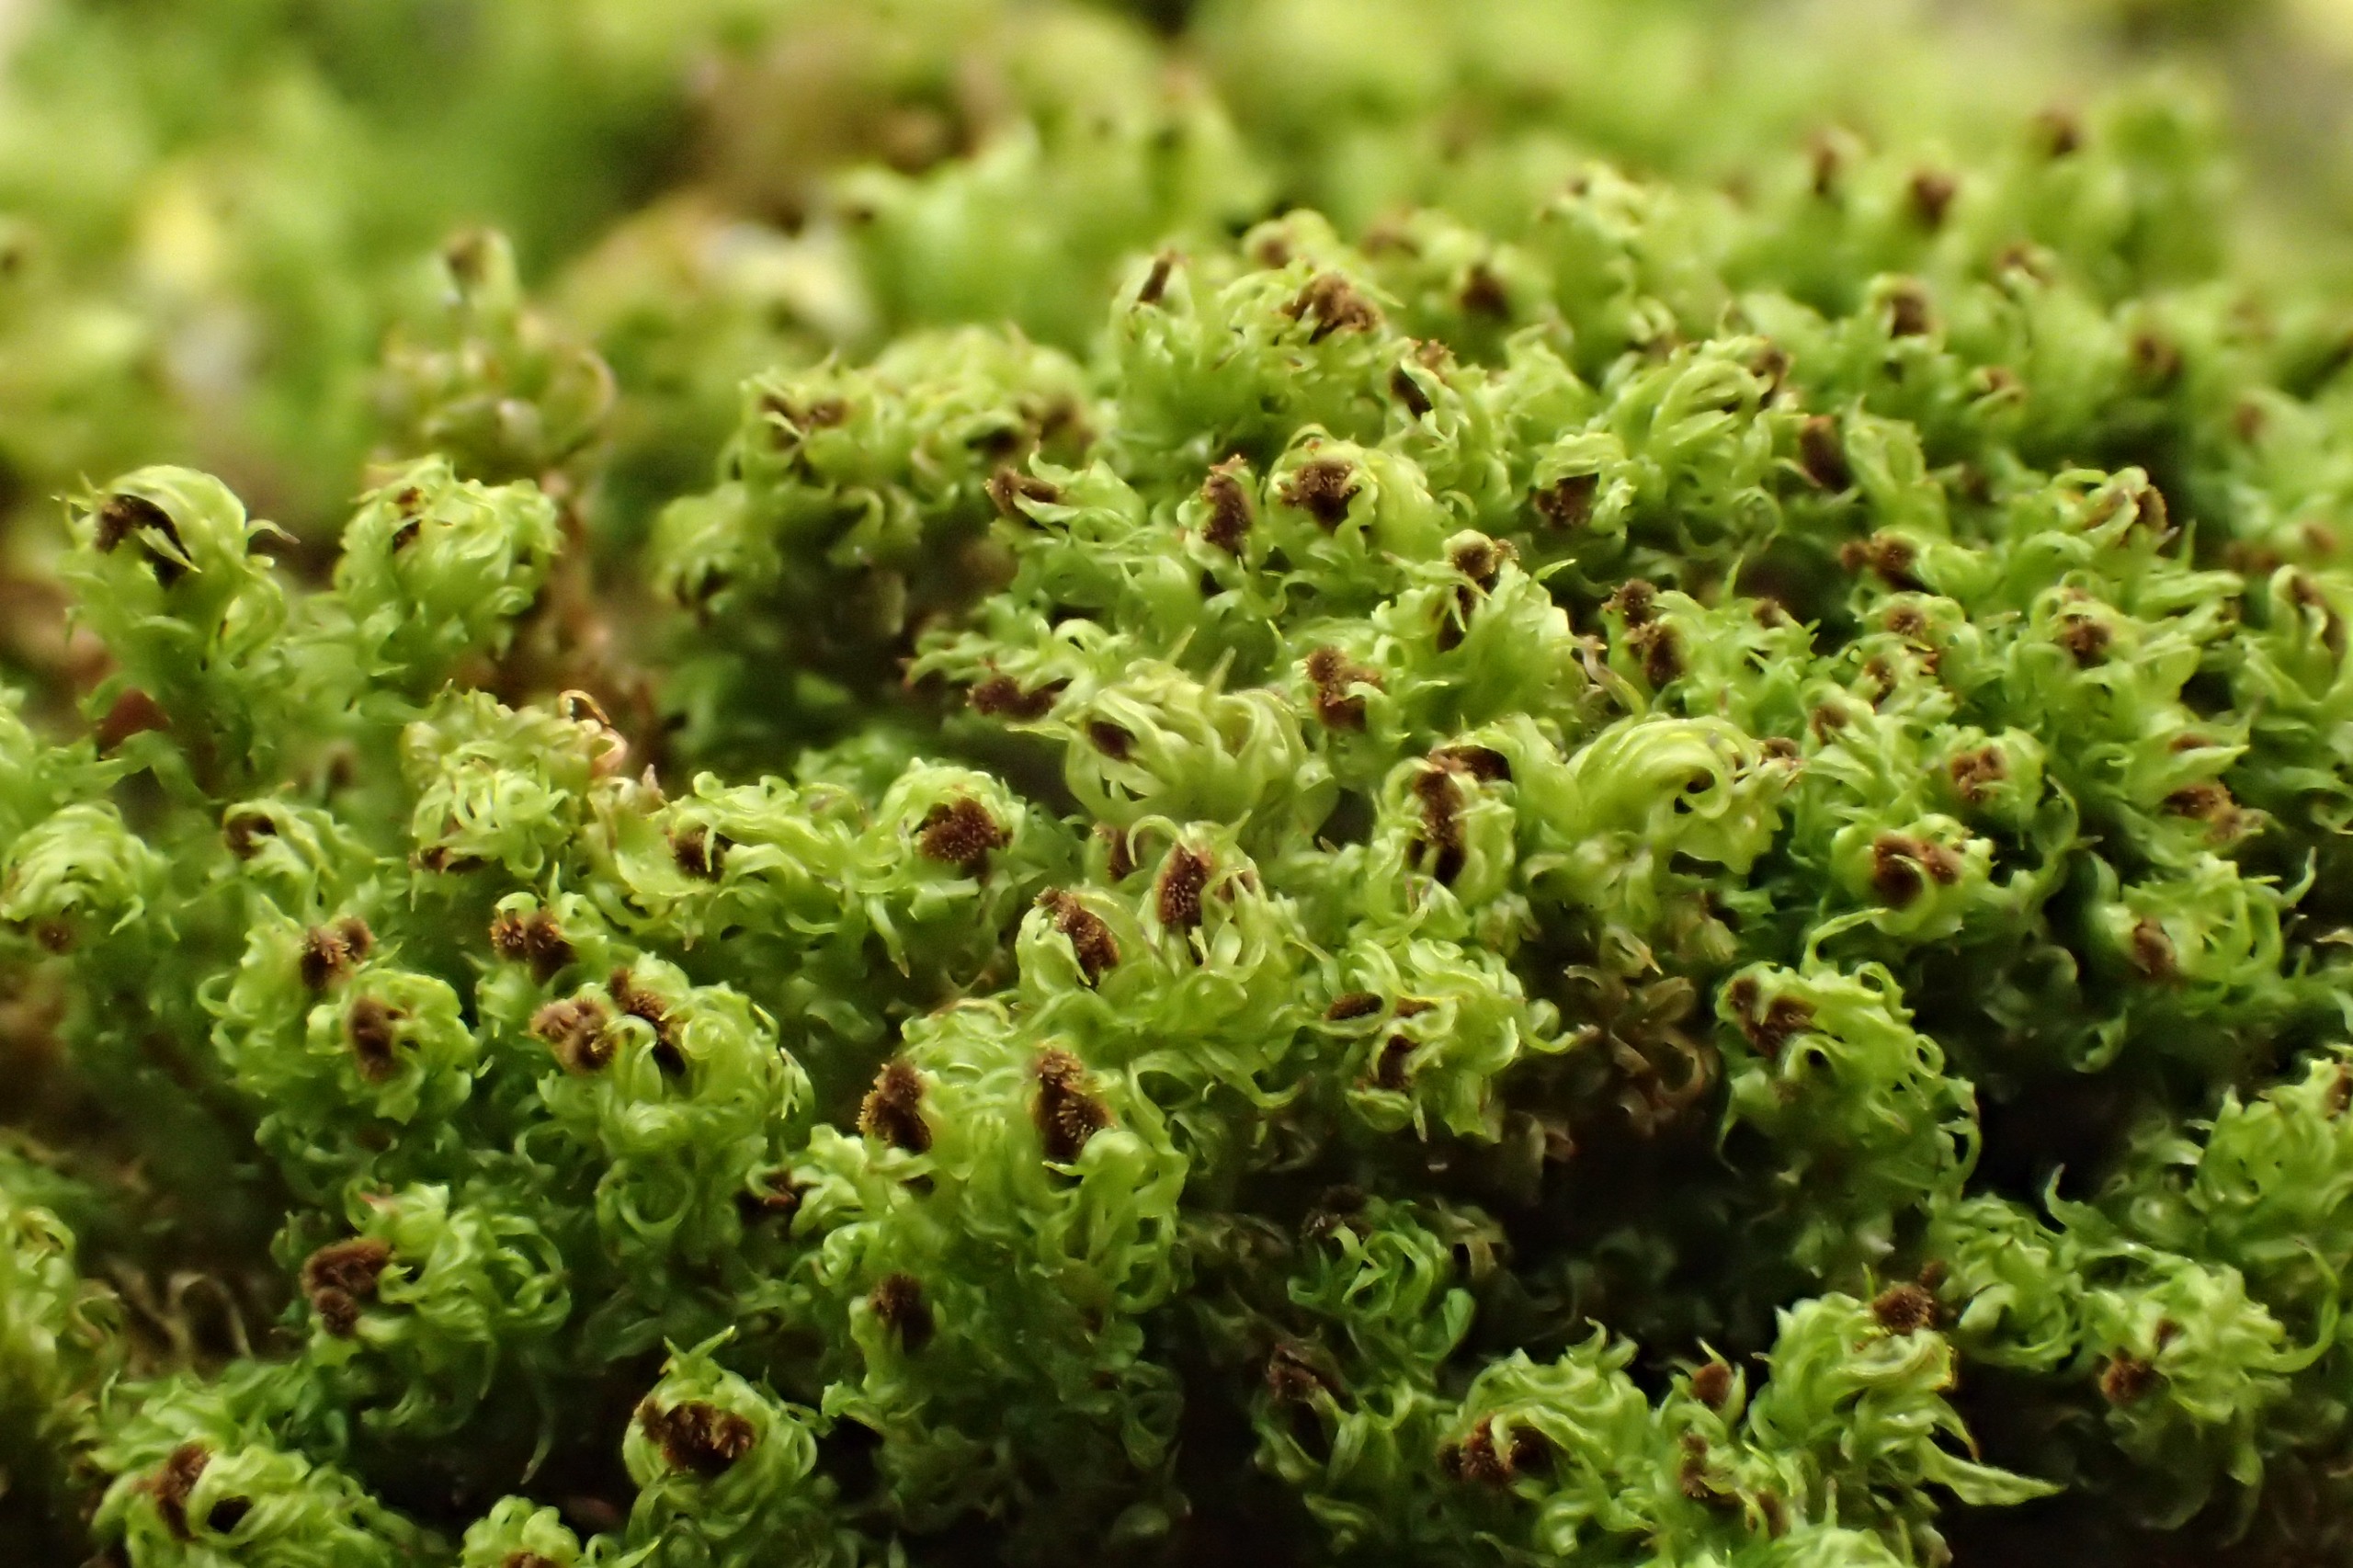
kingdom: Plantae
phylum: Bryophyta
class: Bryopsida
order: Orthotrichales
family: Orthotrichaceae
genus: Plenogemma
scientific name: Plenogemma phyllantha
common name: Stor låddenhætte
